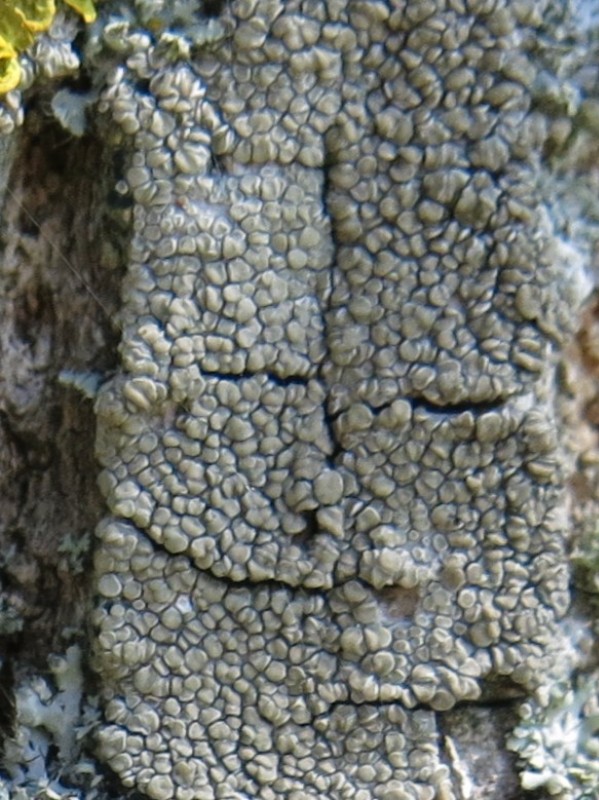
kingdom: Fungi
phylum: Ascomycota
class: Lecanoromycetes
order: Lecanorales
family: Lecanoraceae
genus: Glaucomaria
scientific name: Glaucomaria carpinea
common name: hviddugget kantskivelav
